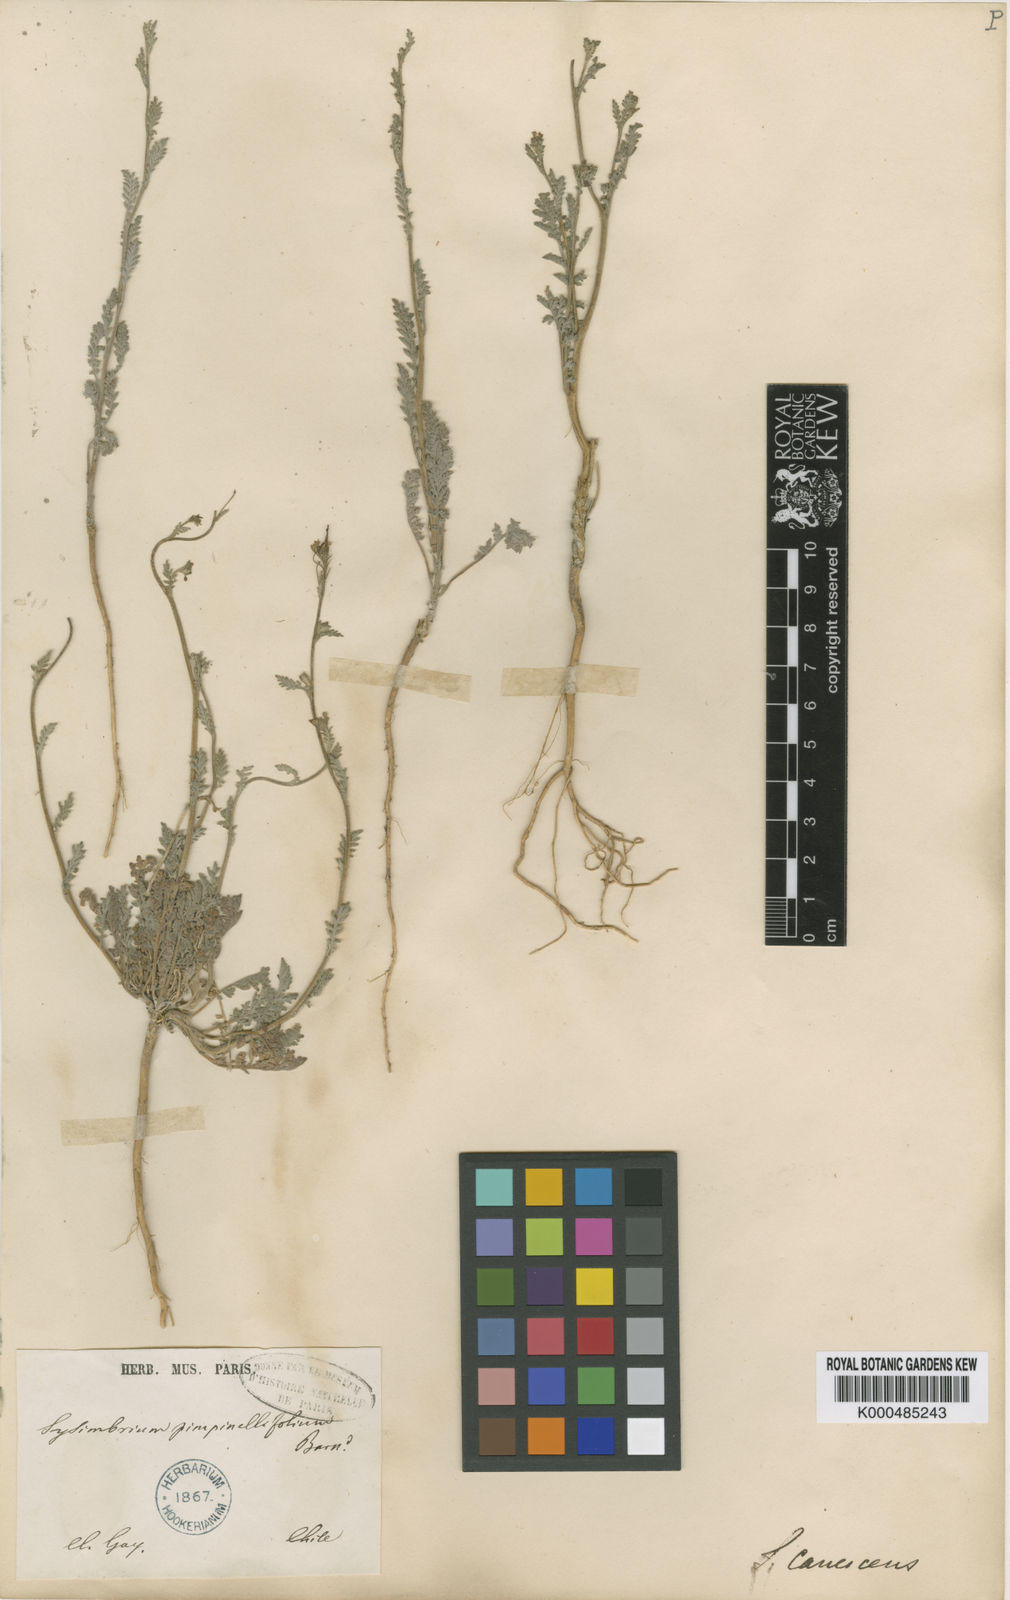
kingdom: Plantae
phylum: Tracheophyta
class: Magnoliopsida
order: Brassicales
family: Brassicaceae
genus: Descurainia
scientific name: Descurainia
